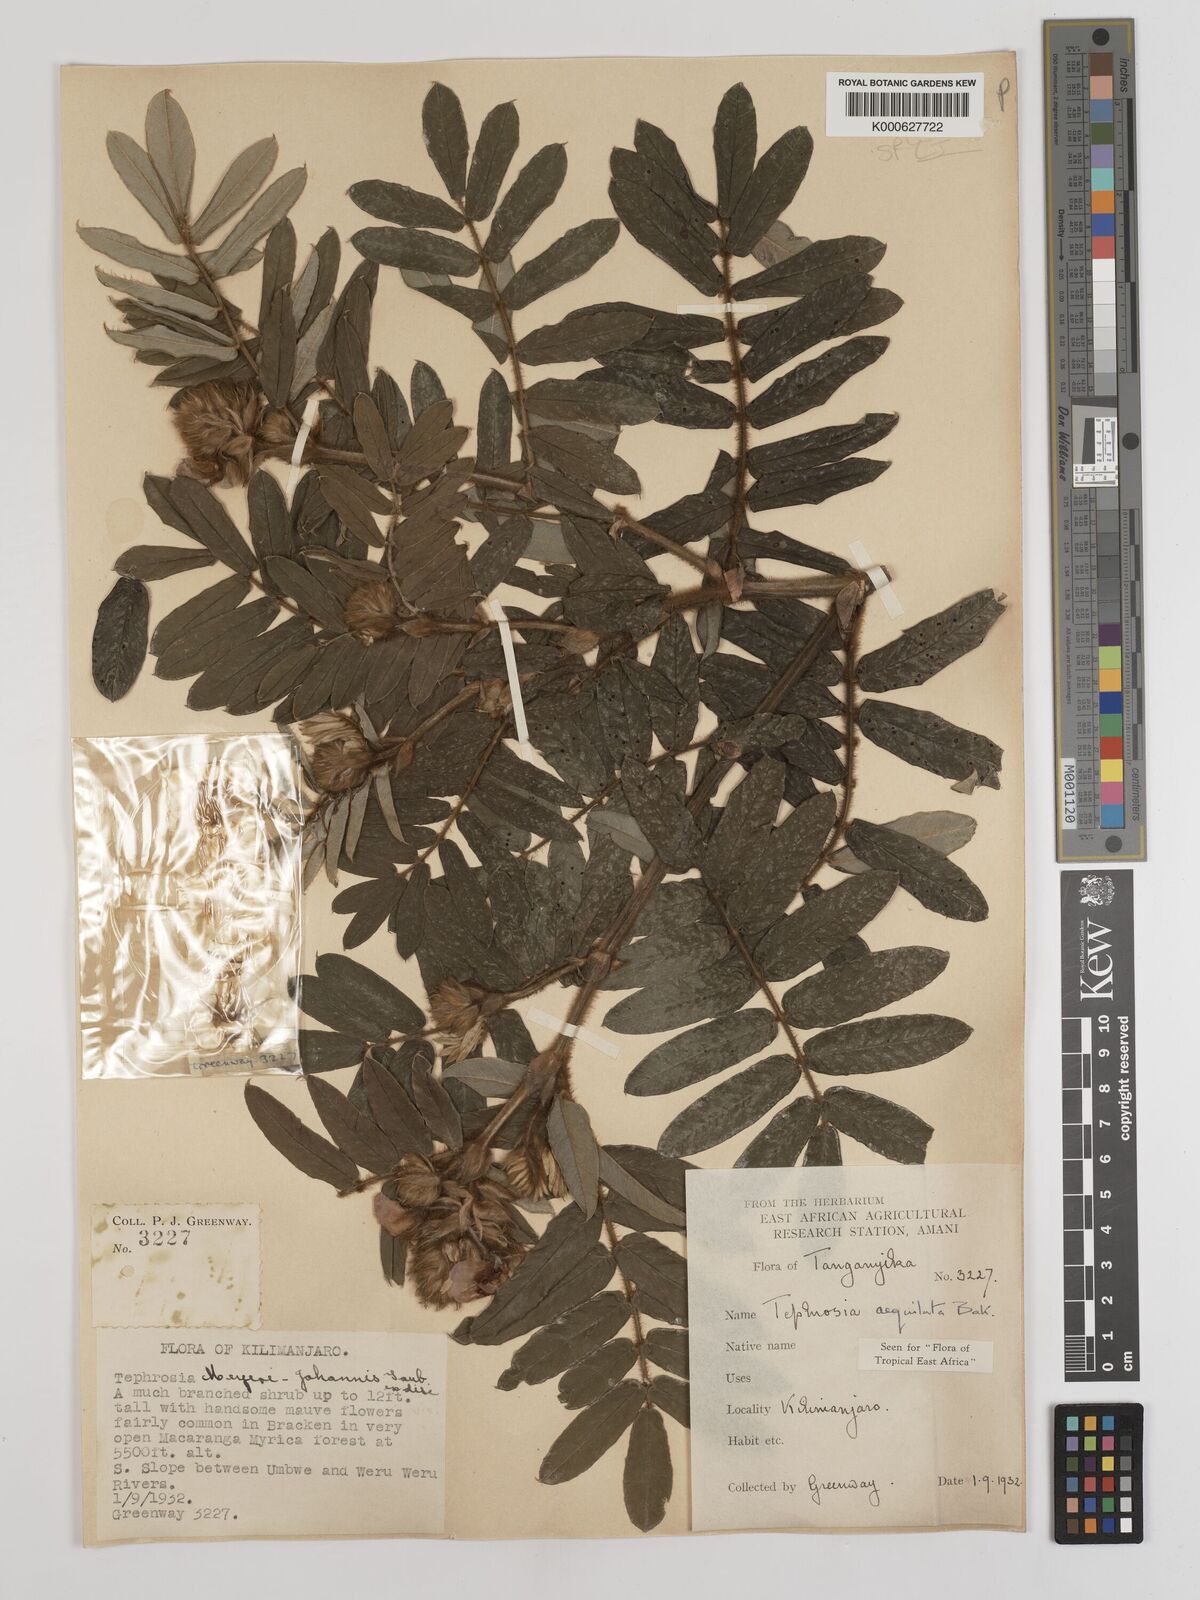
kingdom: Plantae
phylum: Tracheophyta
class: Magnoliopsida
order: Fabales
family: Fabaceae
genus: Tephrosia
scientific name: Tephrosia aequilata
